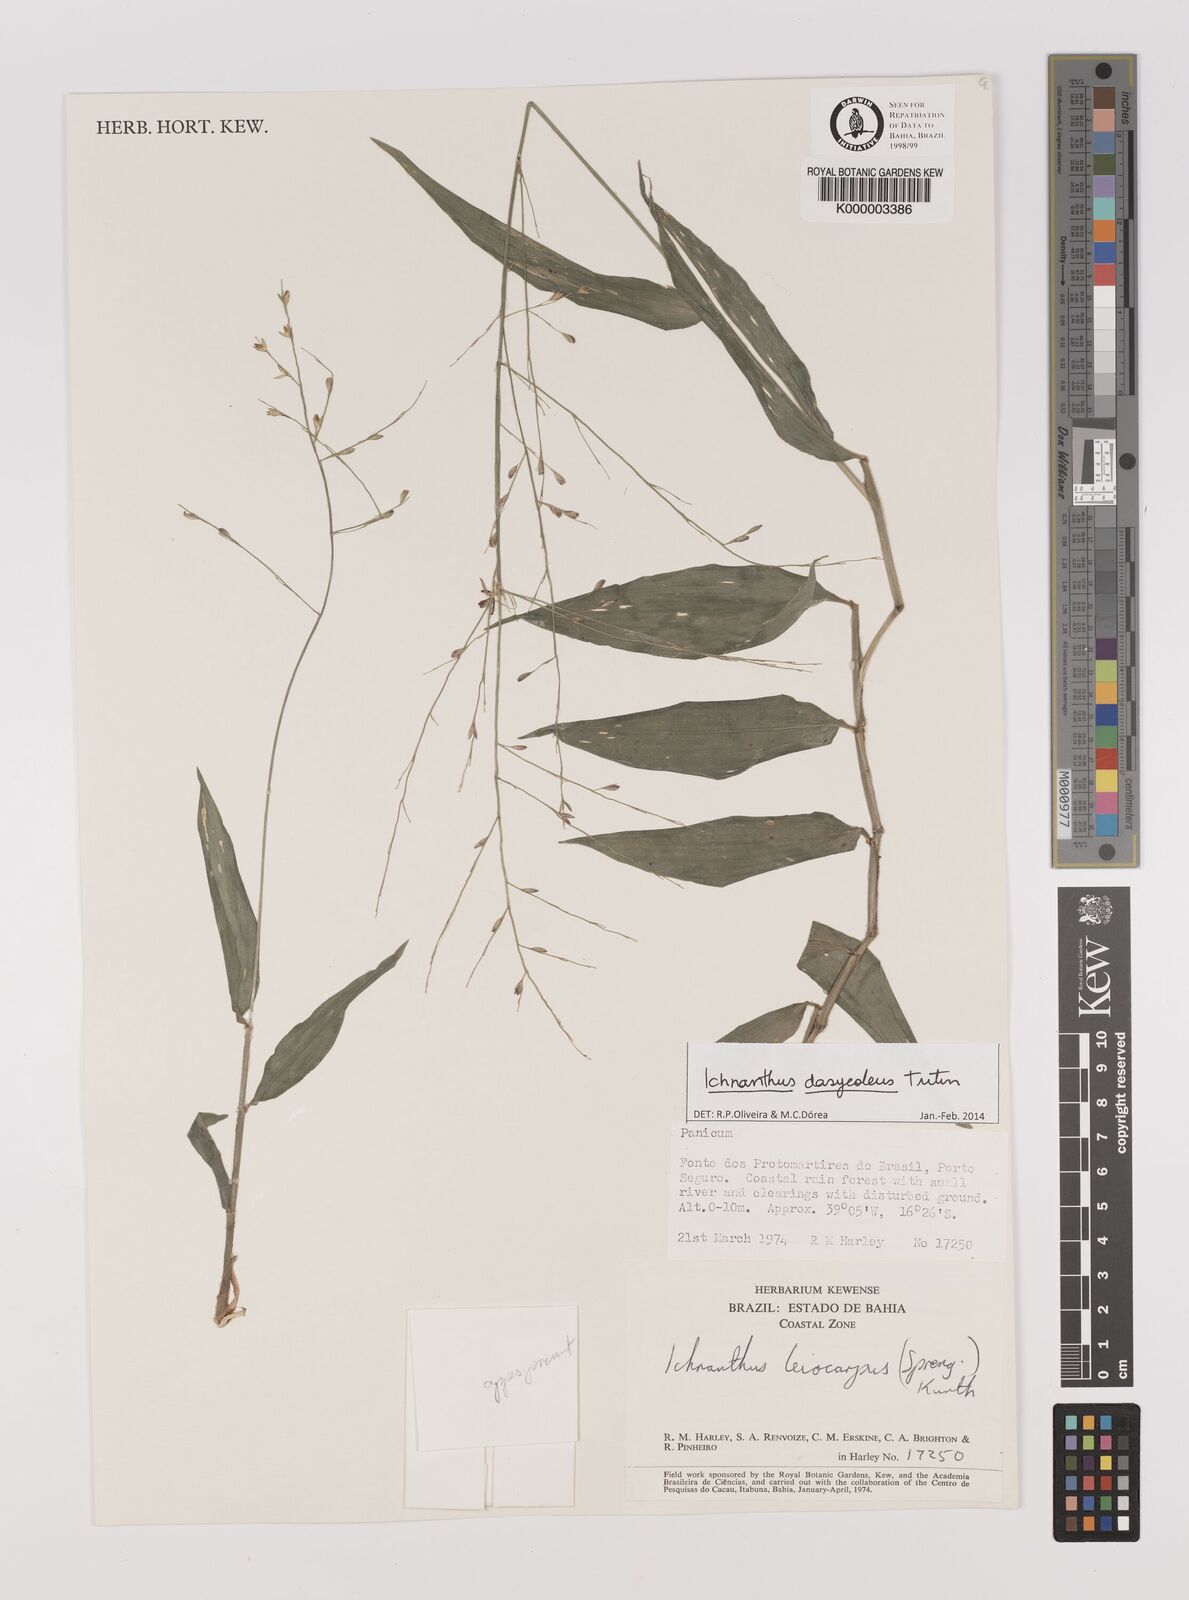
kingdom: Plantae
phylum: Tracheophyta
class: Liliopsida
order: Poales
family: Poaceae
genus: Ichnanthus
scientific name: Ichnanthus nemoralis
